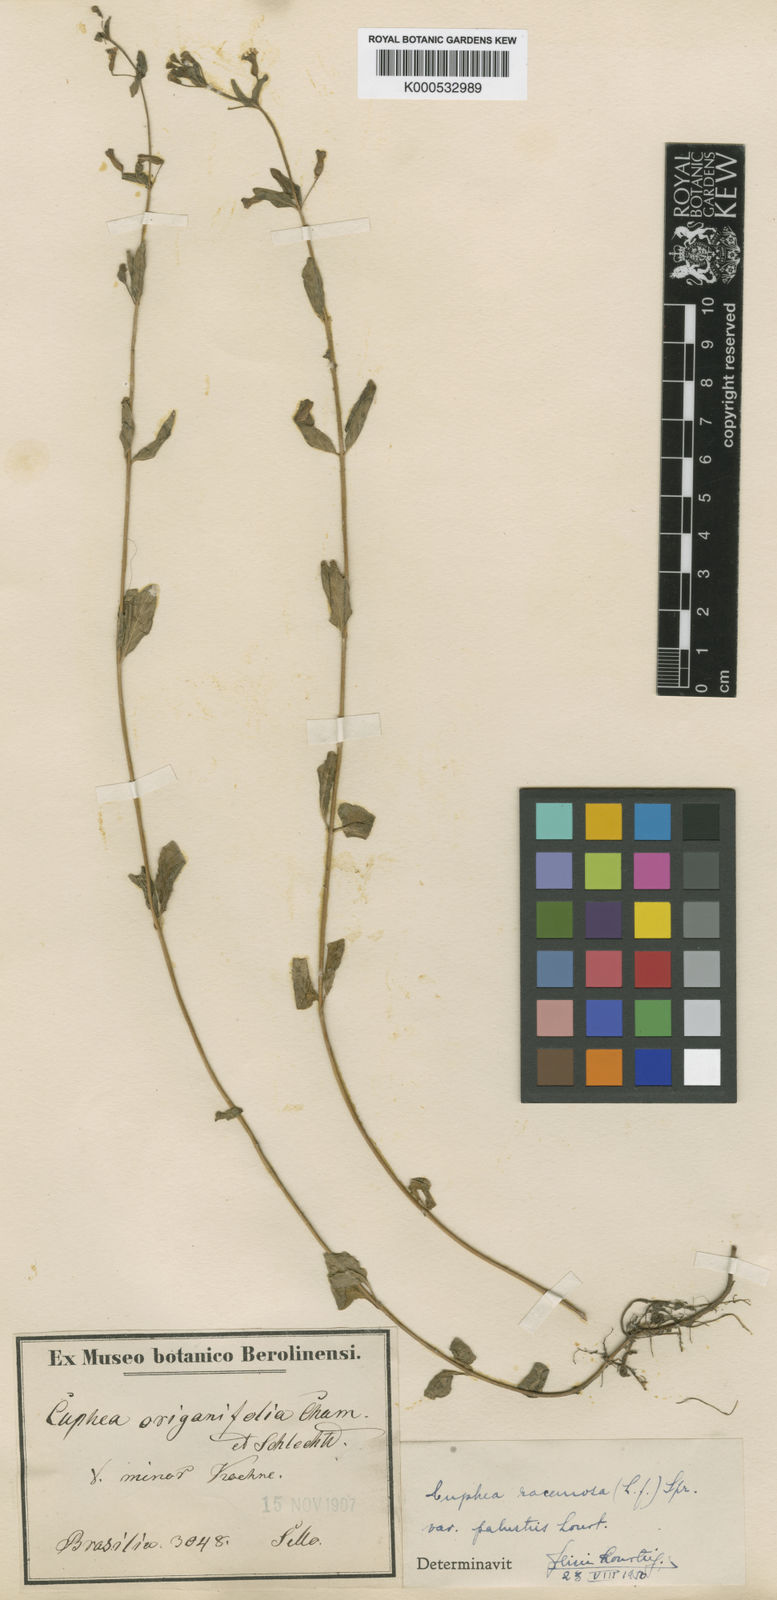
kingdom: Plantae
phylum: Tracheophyta
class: Magnoliopsida
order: Myrtales
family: Lythraceae
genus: Cuphea
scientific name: Cuphea racemosa
